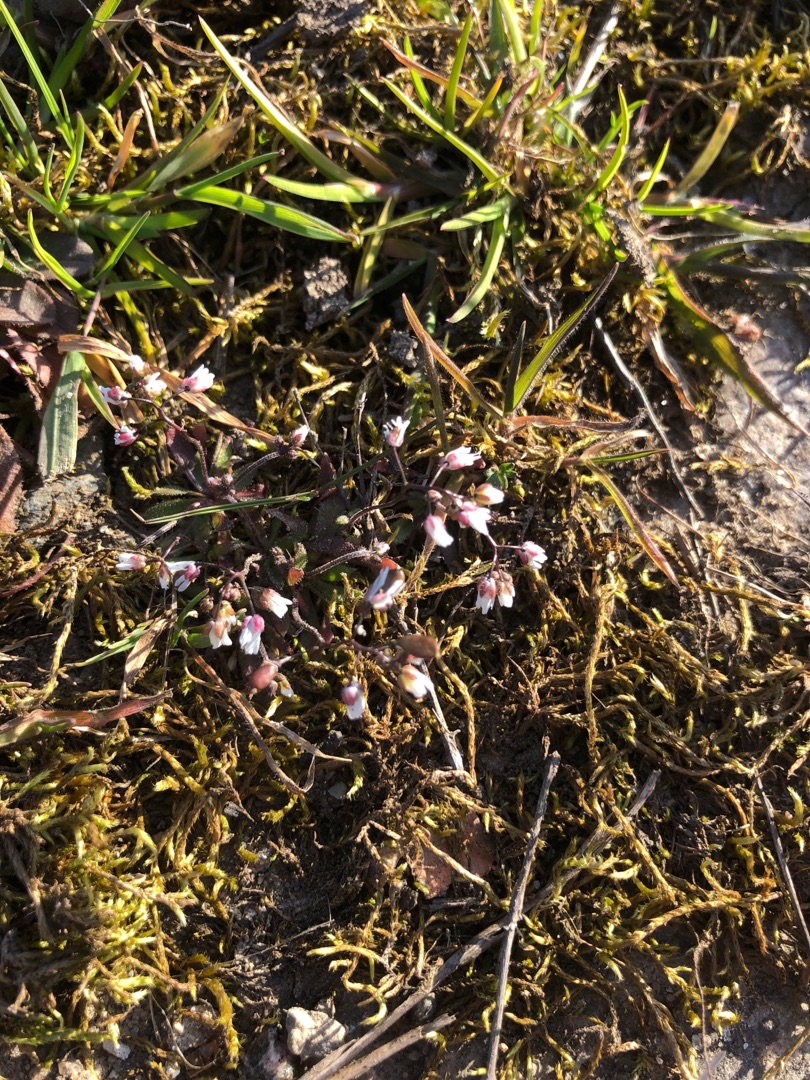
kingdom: Plantae
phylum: Tracheophyta
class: Magnoliopsida
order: Brassicales
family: Brassicaceae
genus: Draba
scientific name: Draba verna
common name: Vår-gæslingeblomst
